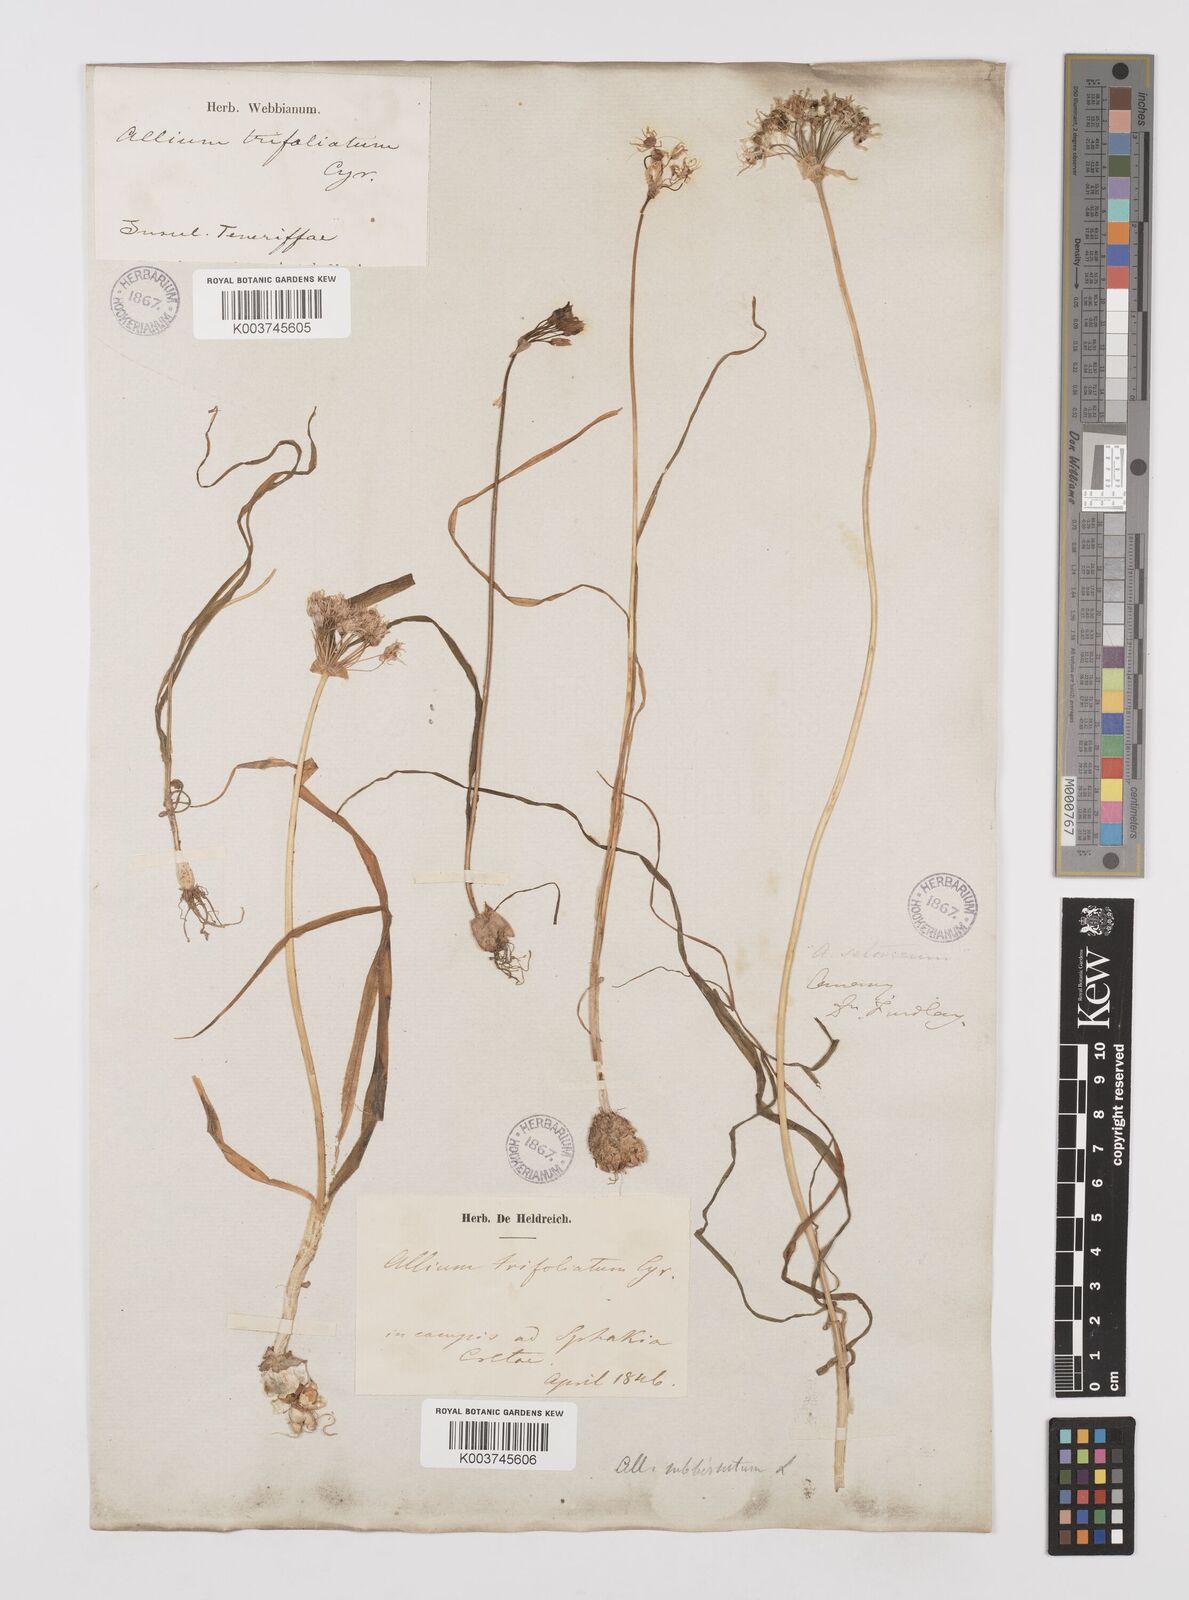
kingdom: Plantae
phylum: Tracheophyta
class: Liliopsida
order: Asparagales
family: Amaryllidaceae
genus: Allium
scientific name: Allium subvillosum
